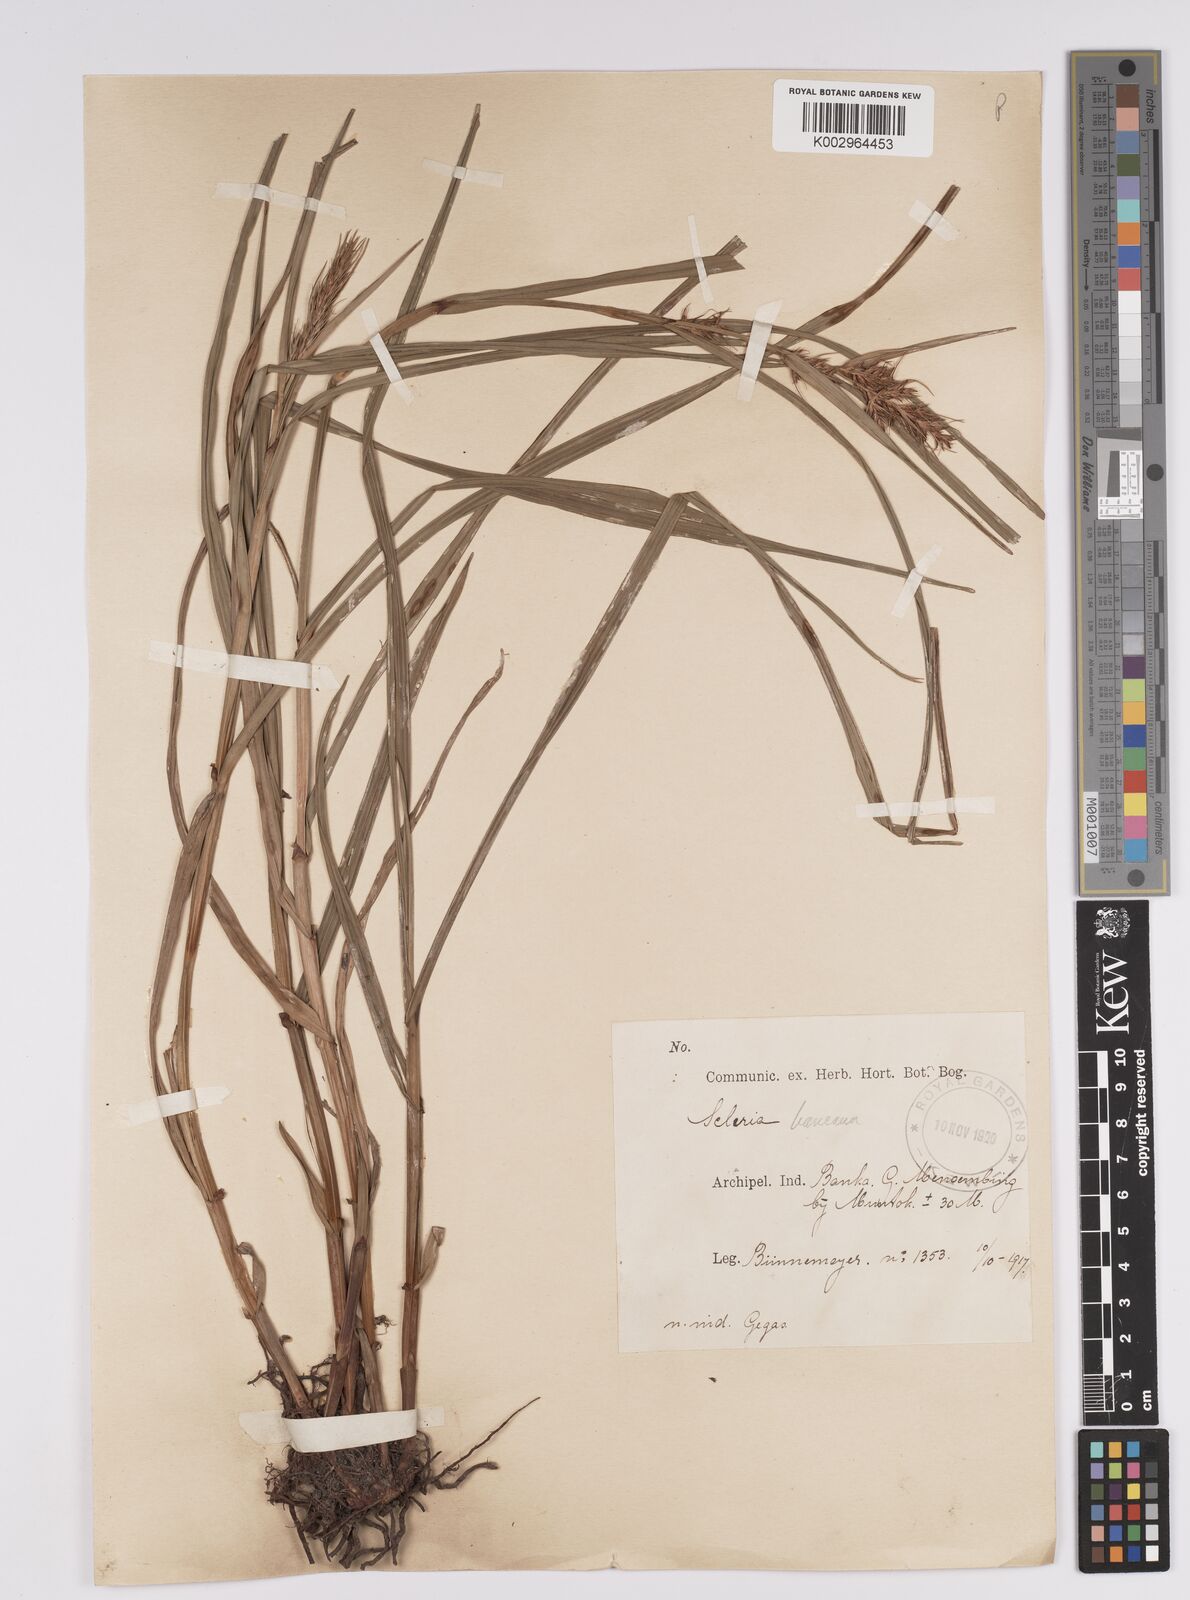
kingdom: Plantae
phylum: Tracheophyta
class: Liliopsida
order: Poales
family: Cyperaceae
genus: Scleria
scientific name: Scleria ciliaris
